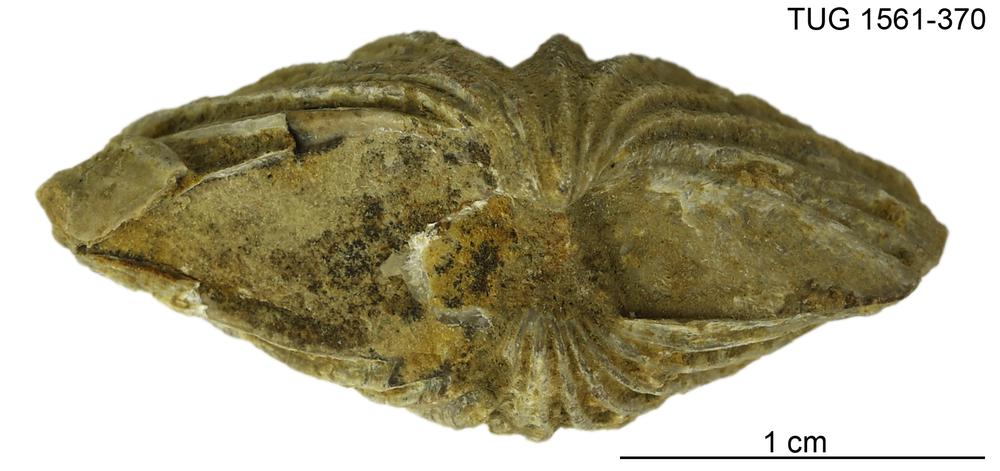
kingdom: Animalia
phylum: Arthropoda
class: Copepoda
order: Cyclopoida
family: Notodelphyidae
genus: Janhius
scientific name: Janhius Spirifer barrandi
